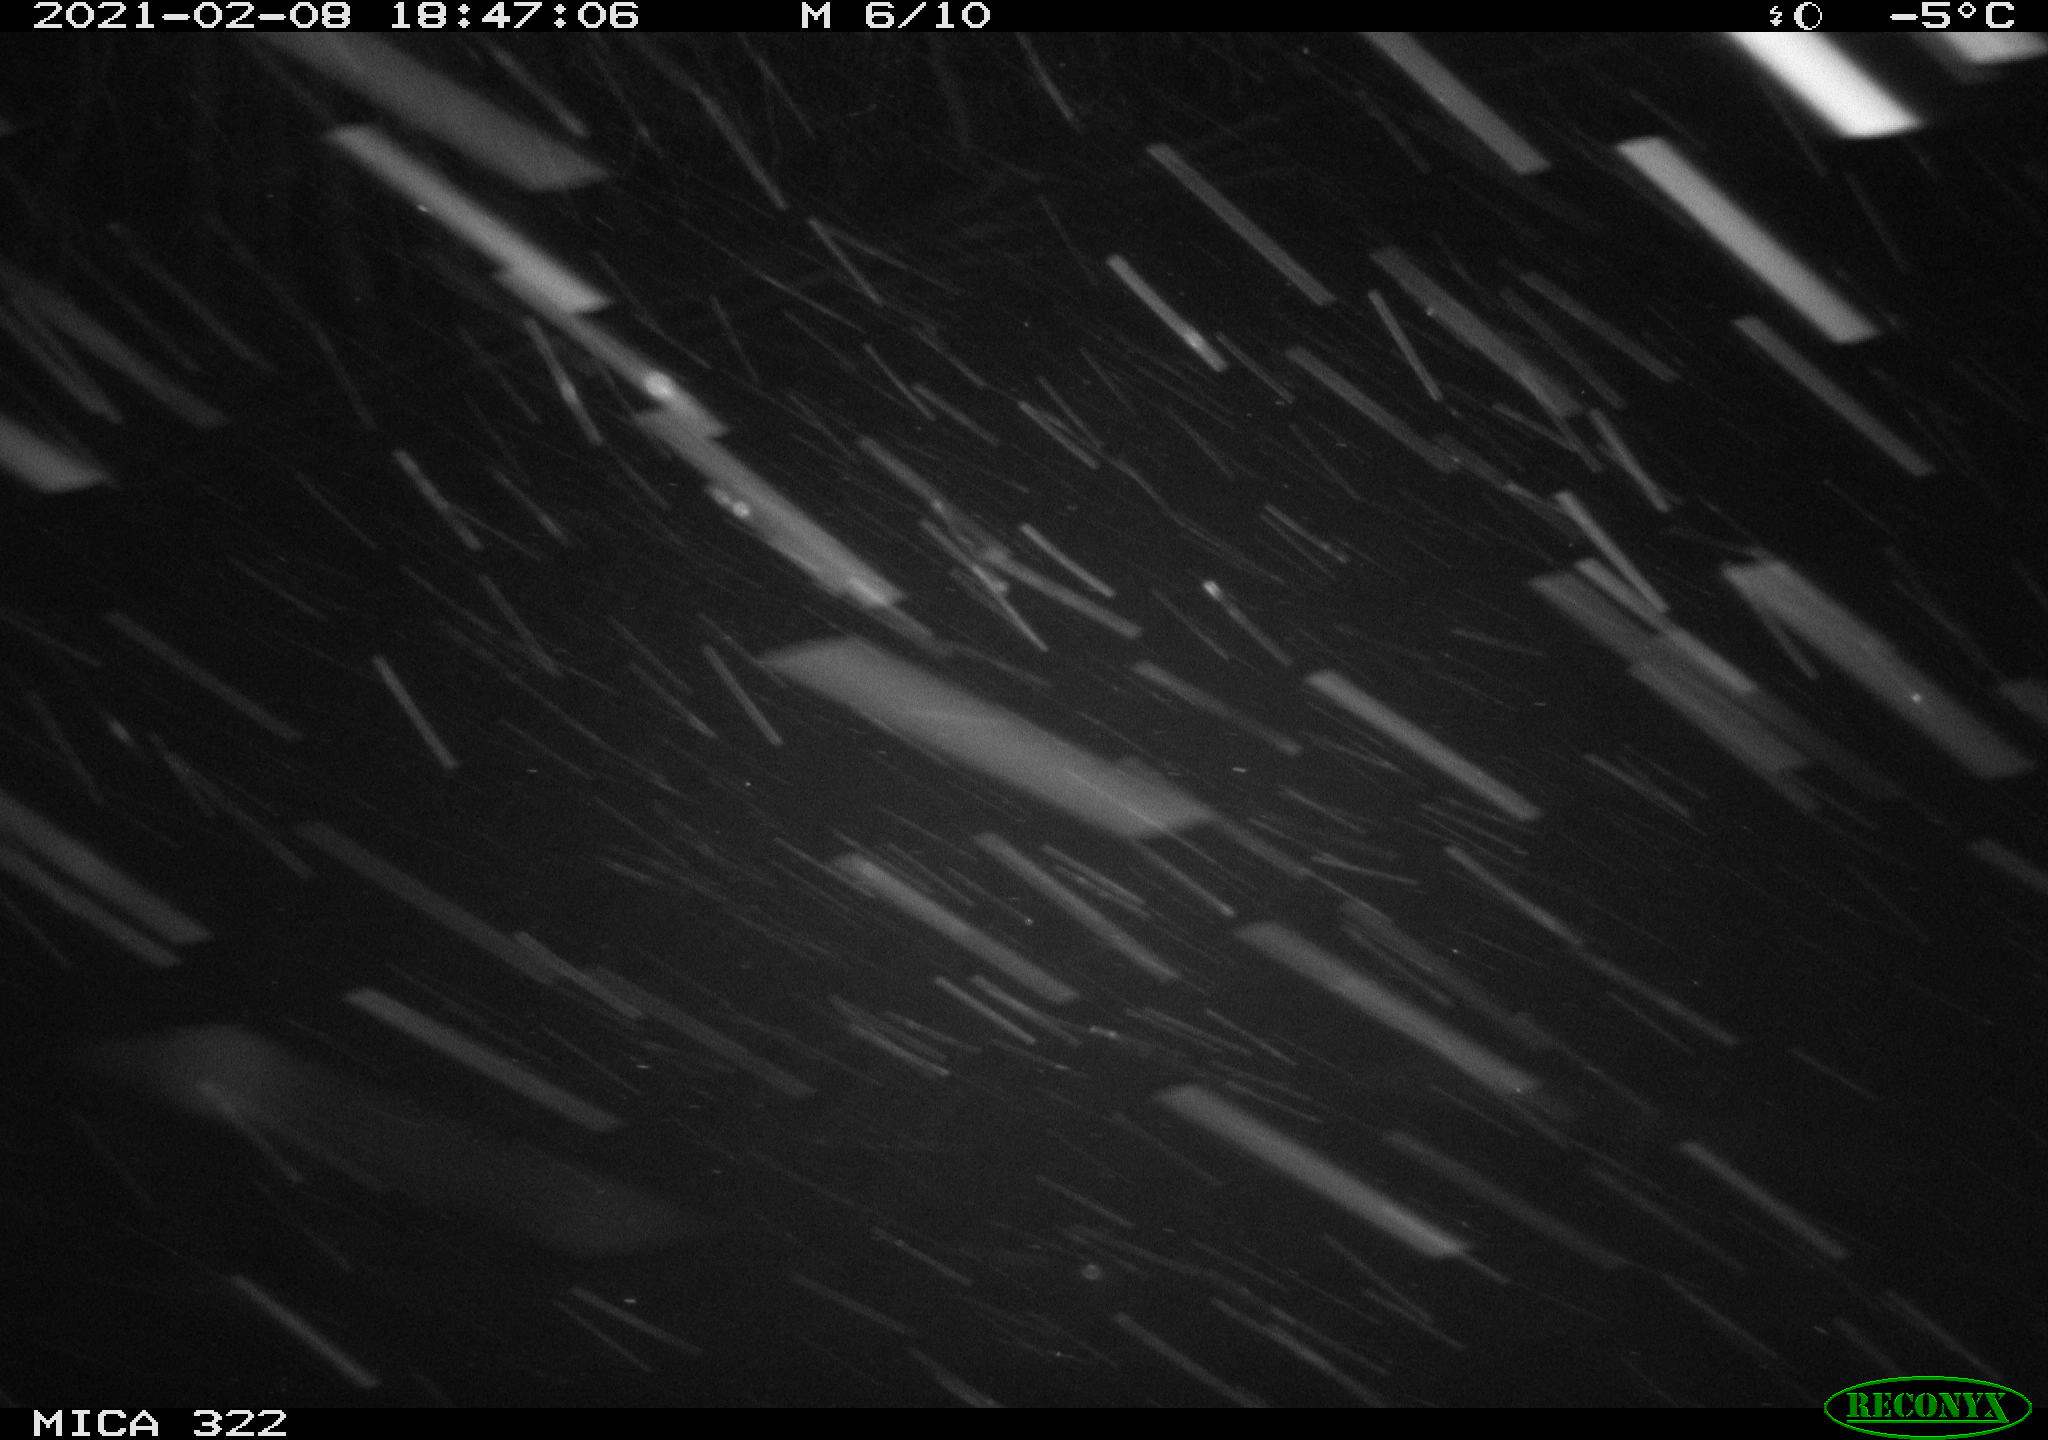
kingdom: Animalia
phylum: Chordata
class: Mammalia
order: Rodentia
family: Muridae
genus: Rattus
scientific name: Rattus norvegicus
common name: Brown rat
